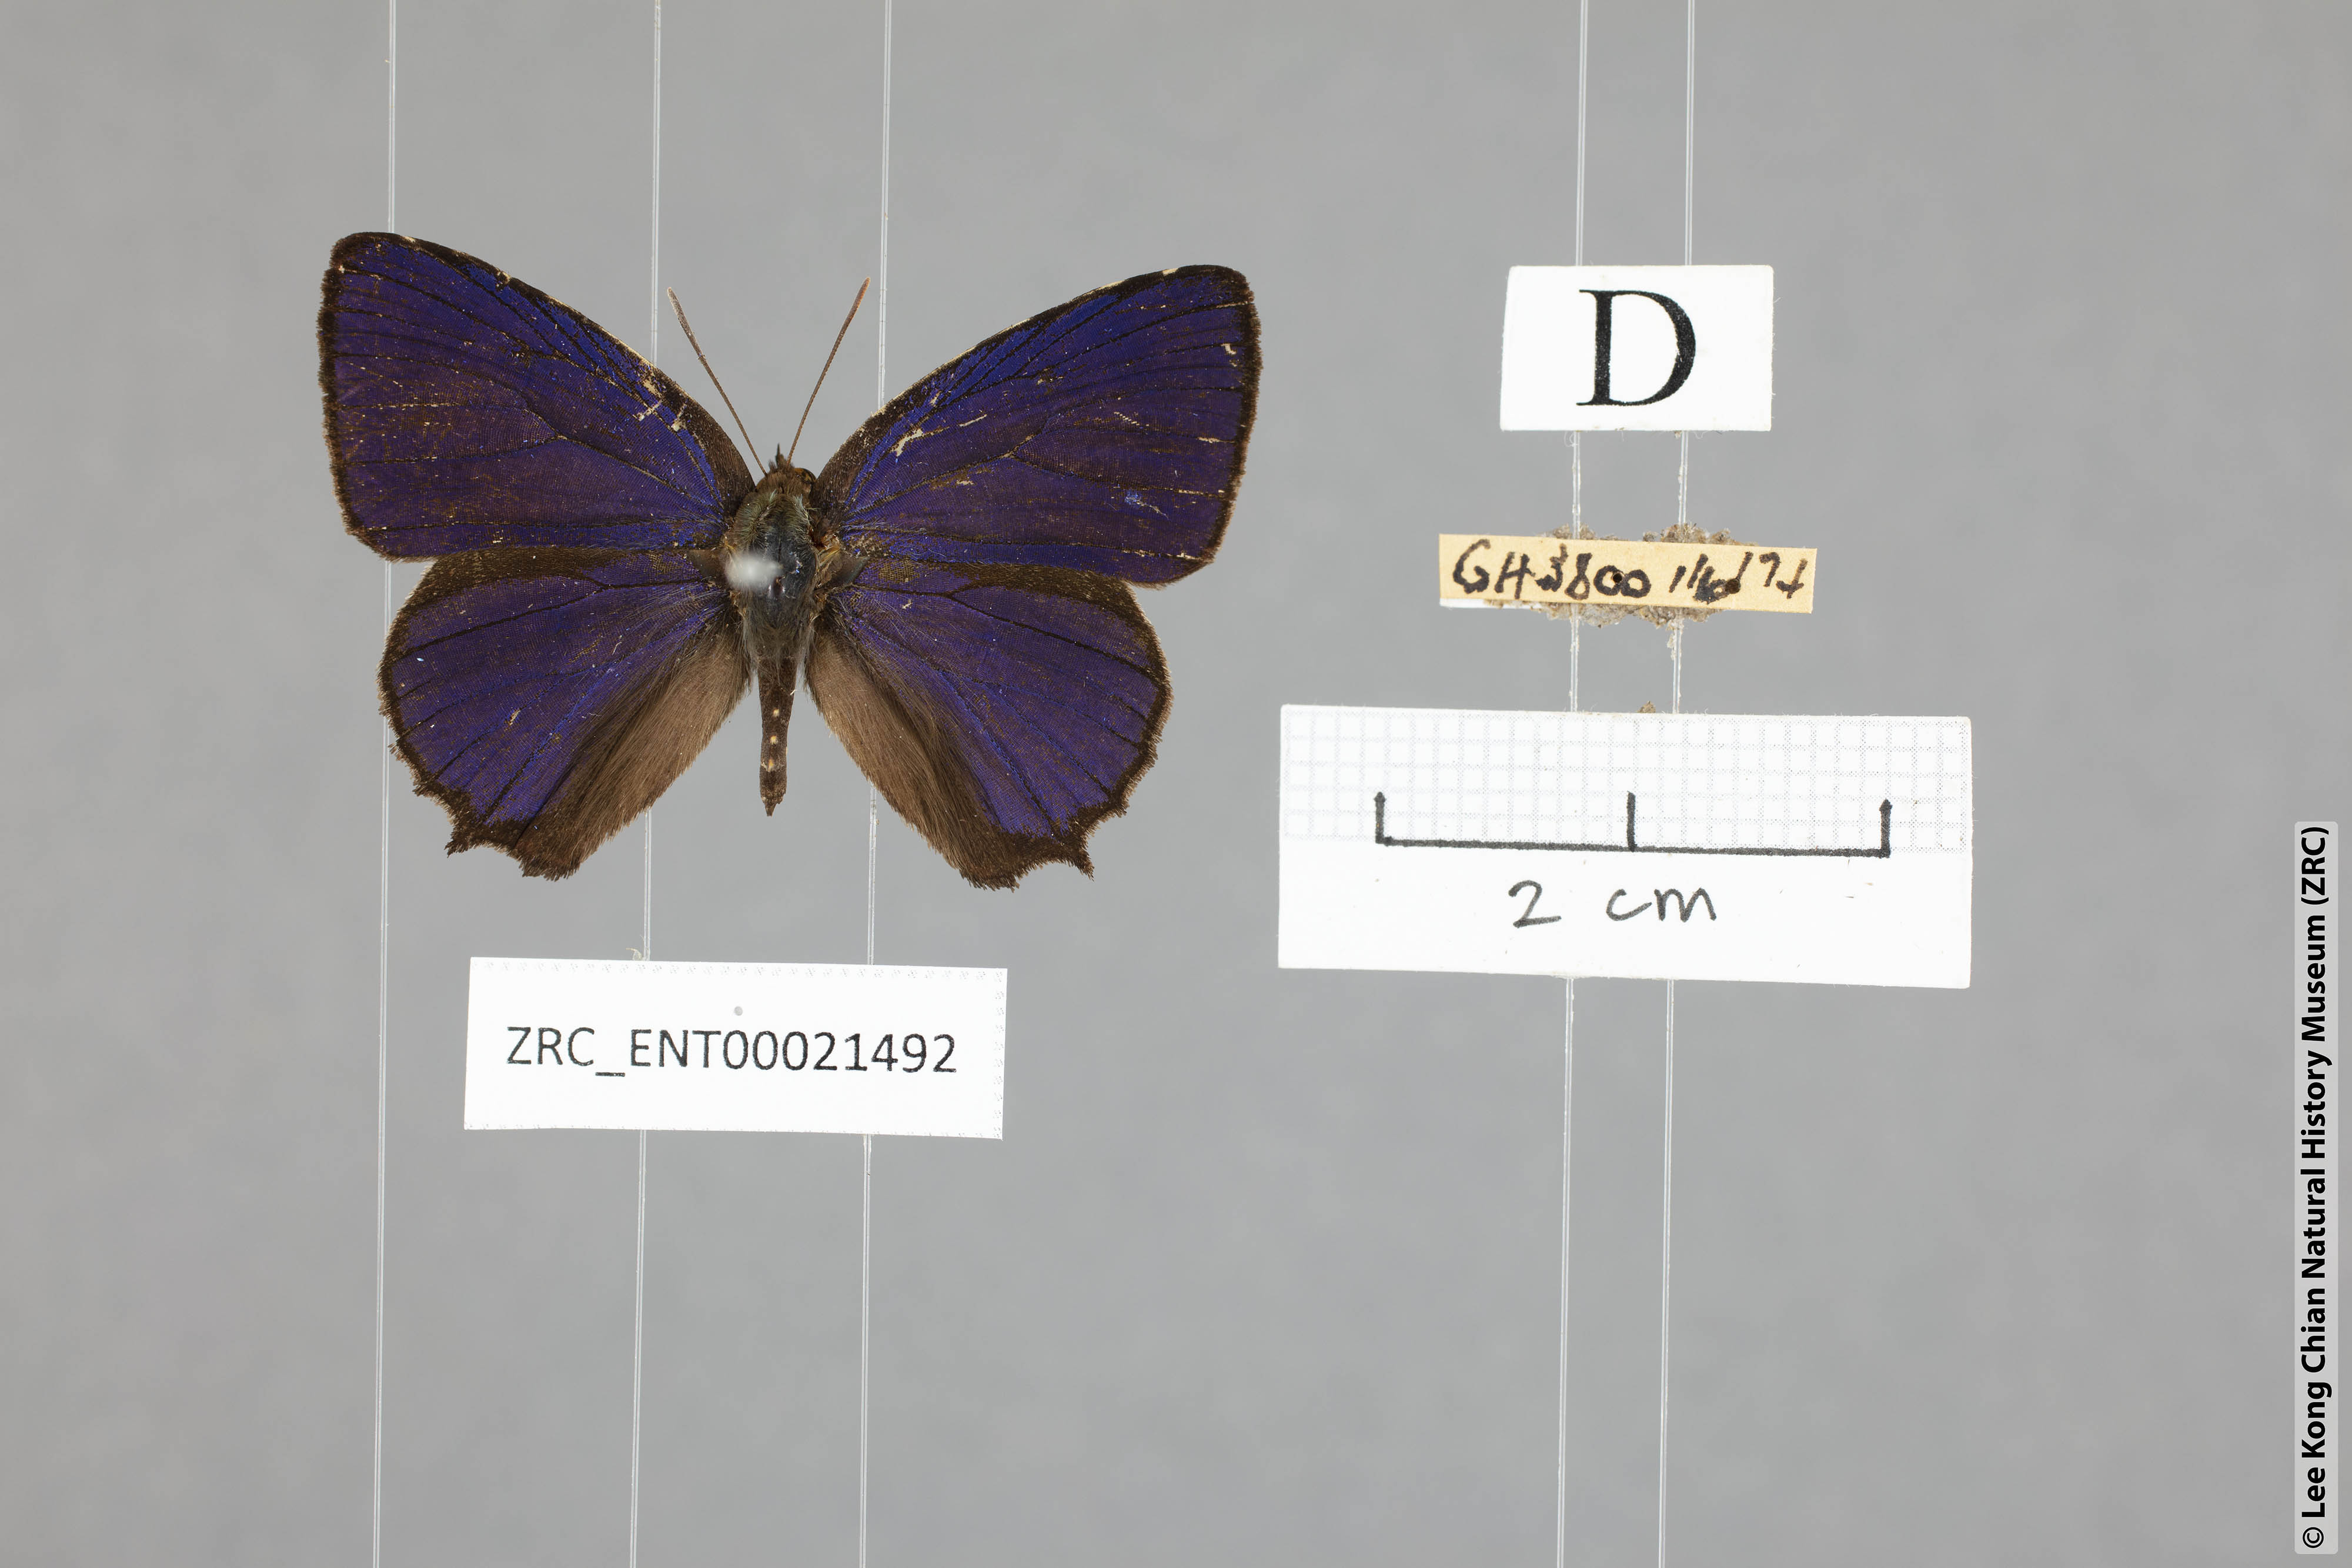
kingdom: Animalia
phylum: Arthropoda
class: Insecta
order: Lepidoptera
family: Lycaenidae
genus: Flos
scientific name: Flos
